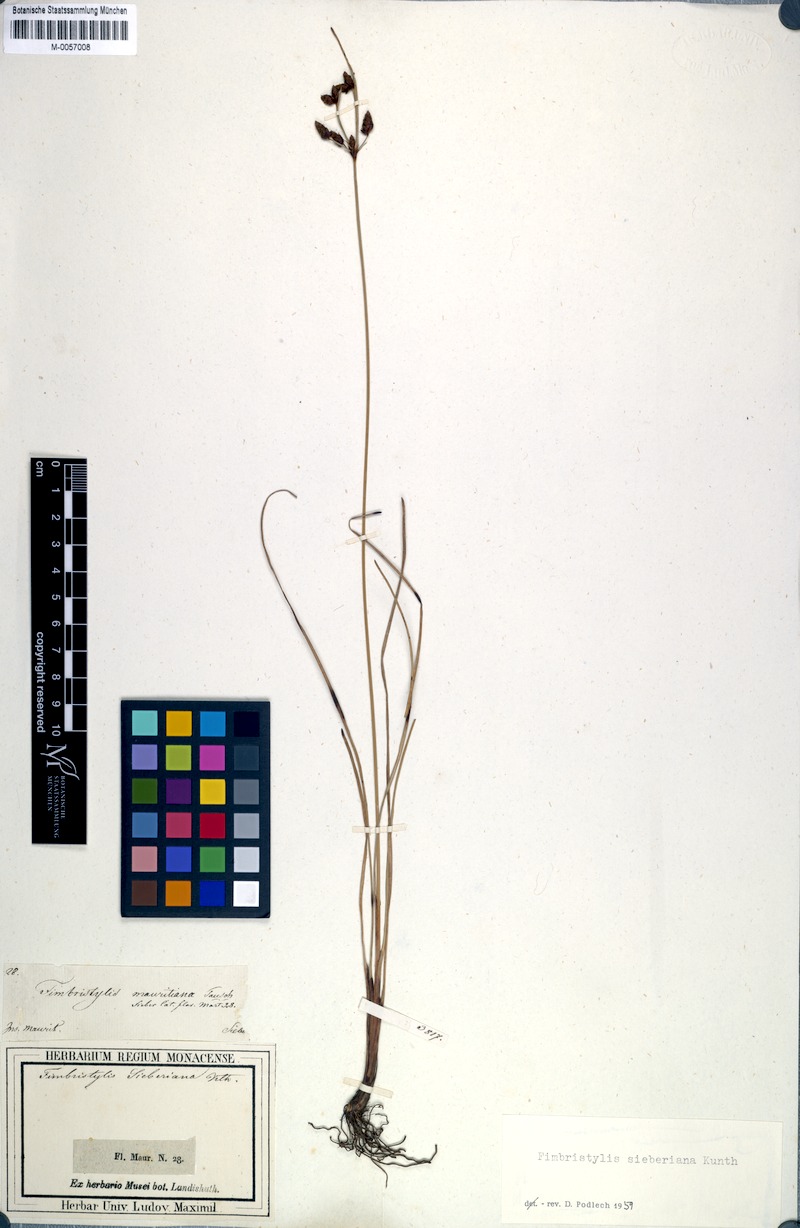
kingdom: Plantae
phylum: Tracheophyta
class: Liliopsida
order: Poales
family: Cyperaceae
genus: Fimbristylis
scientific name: Fimbristylis ferruginea
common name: West indian fimbry
